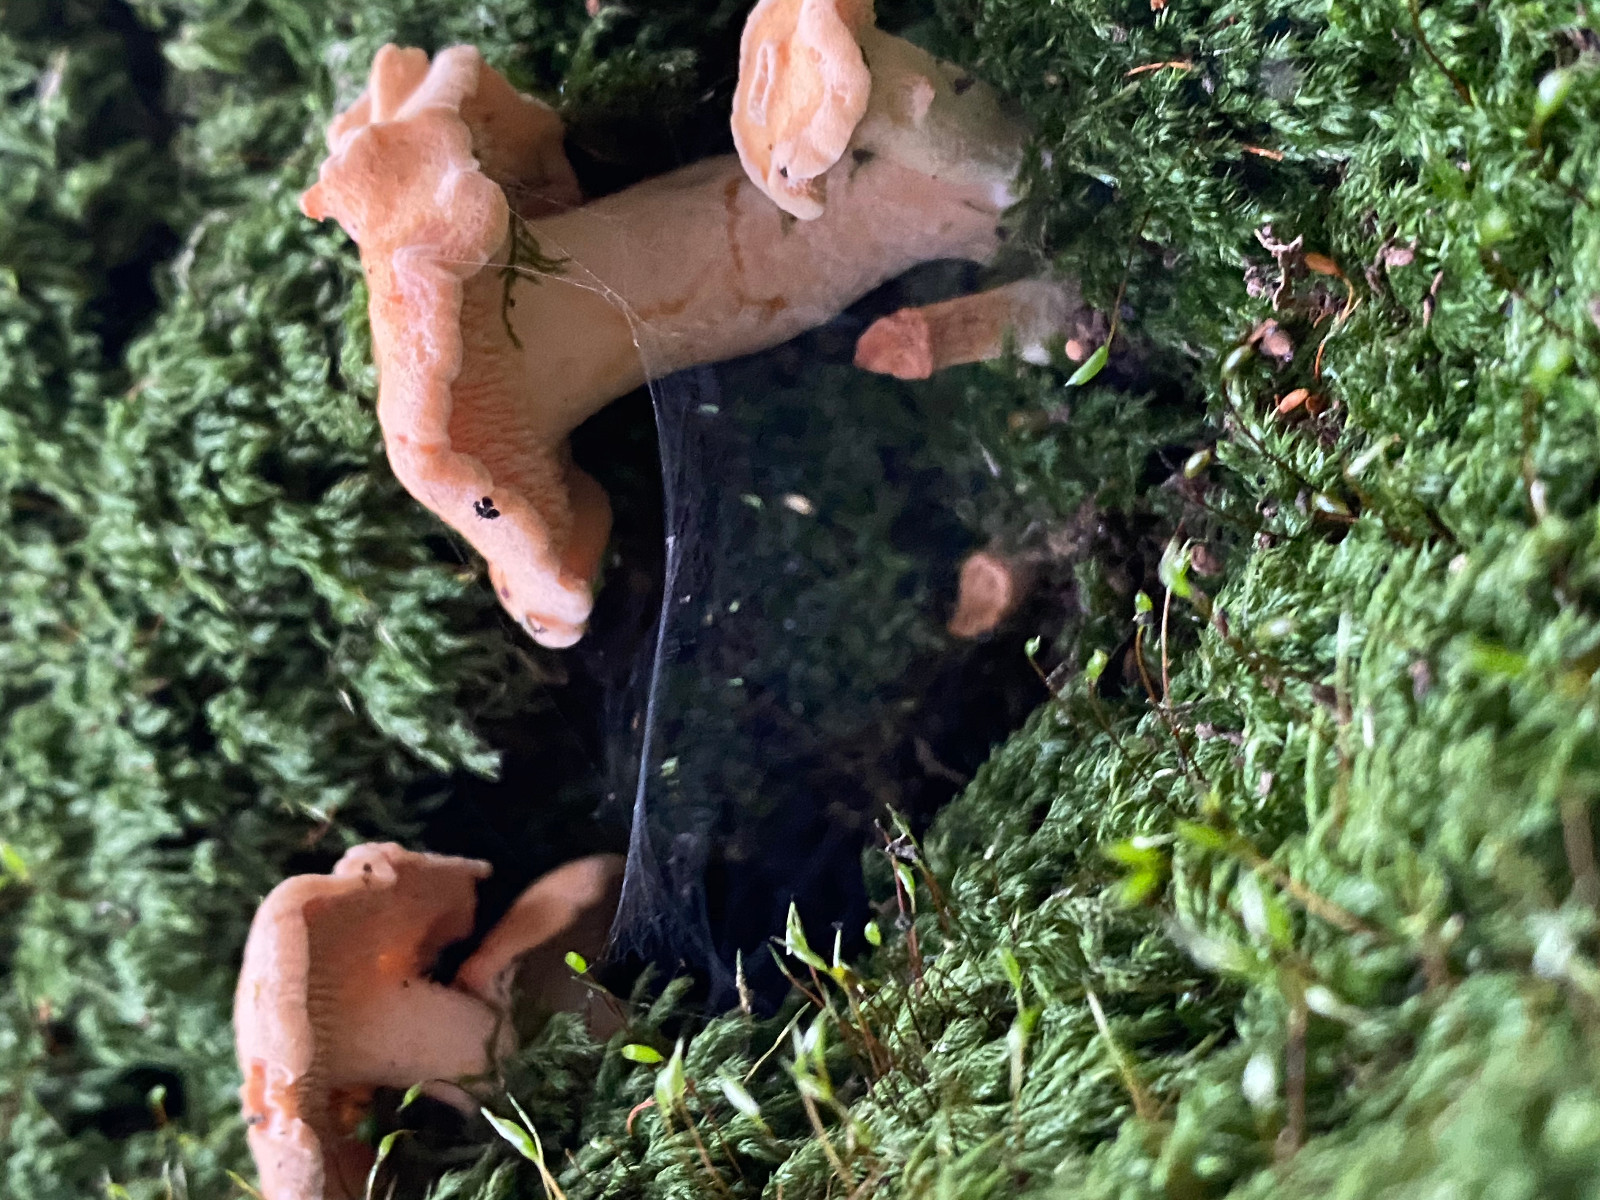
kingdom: Fungi
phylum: Basidiomycota
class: Agaricomycetes
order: Cantharellales
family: Hydnaceae
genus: Hydnum
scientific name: Hydnum
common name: pigsvamp
